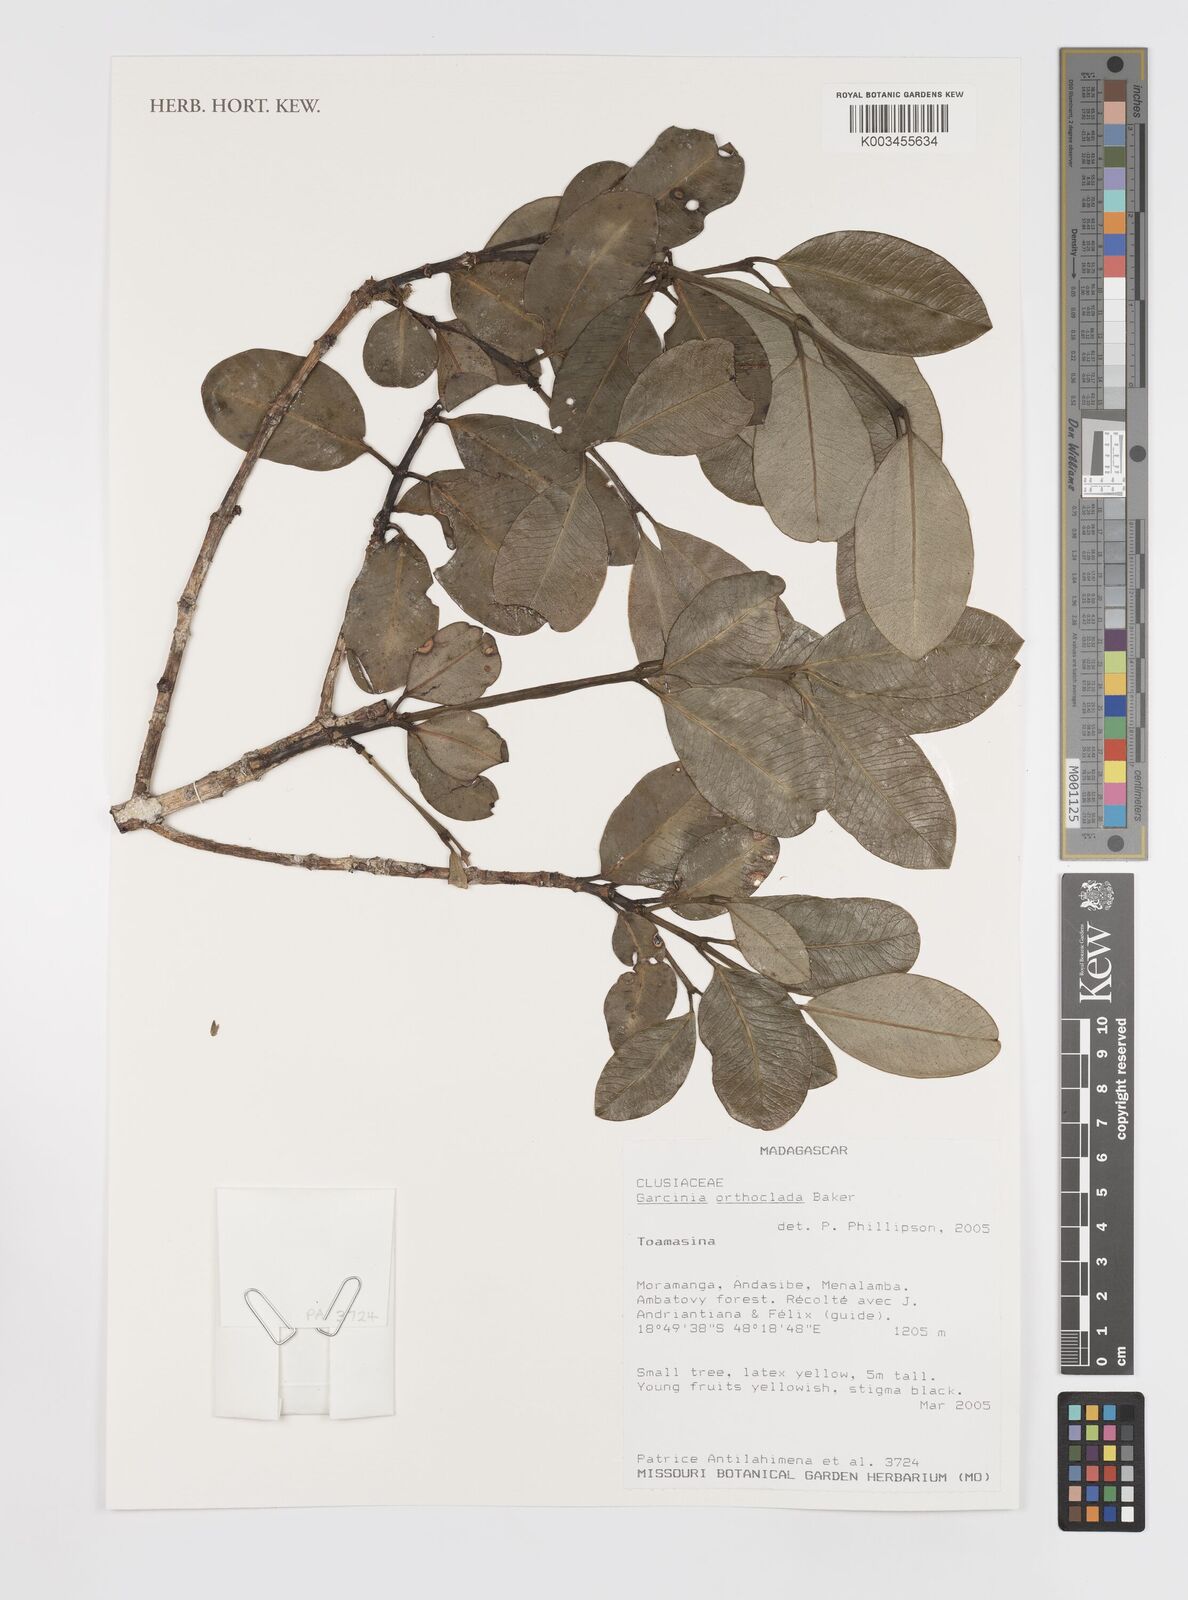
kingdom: Plantae
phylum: Tracheophyta
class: Magnoliopsida
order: Malpighiales
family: Clusiaceae
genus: Garcinia
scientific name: Garcinia orthoclada
